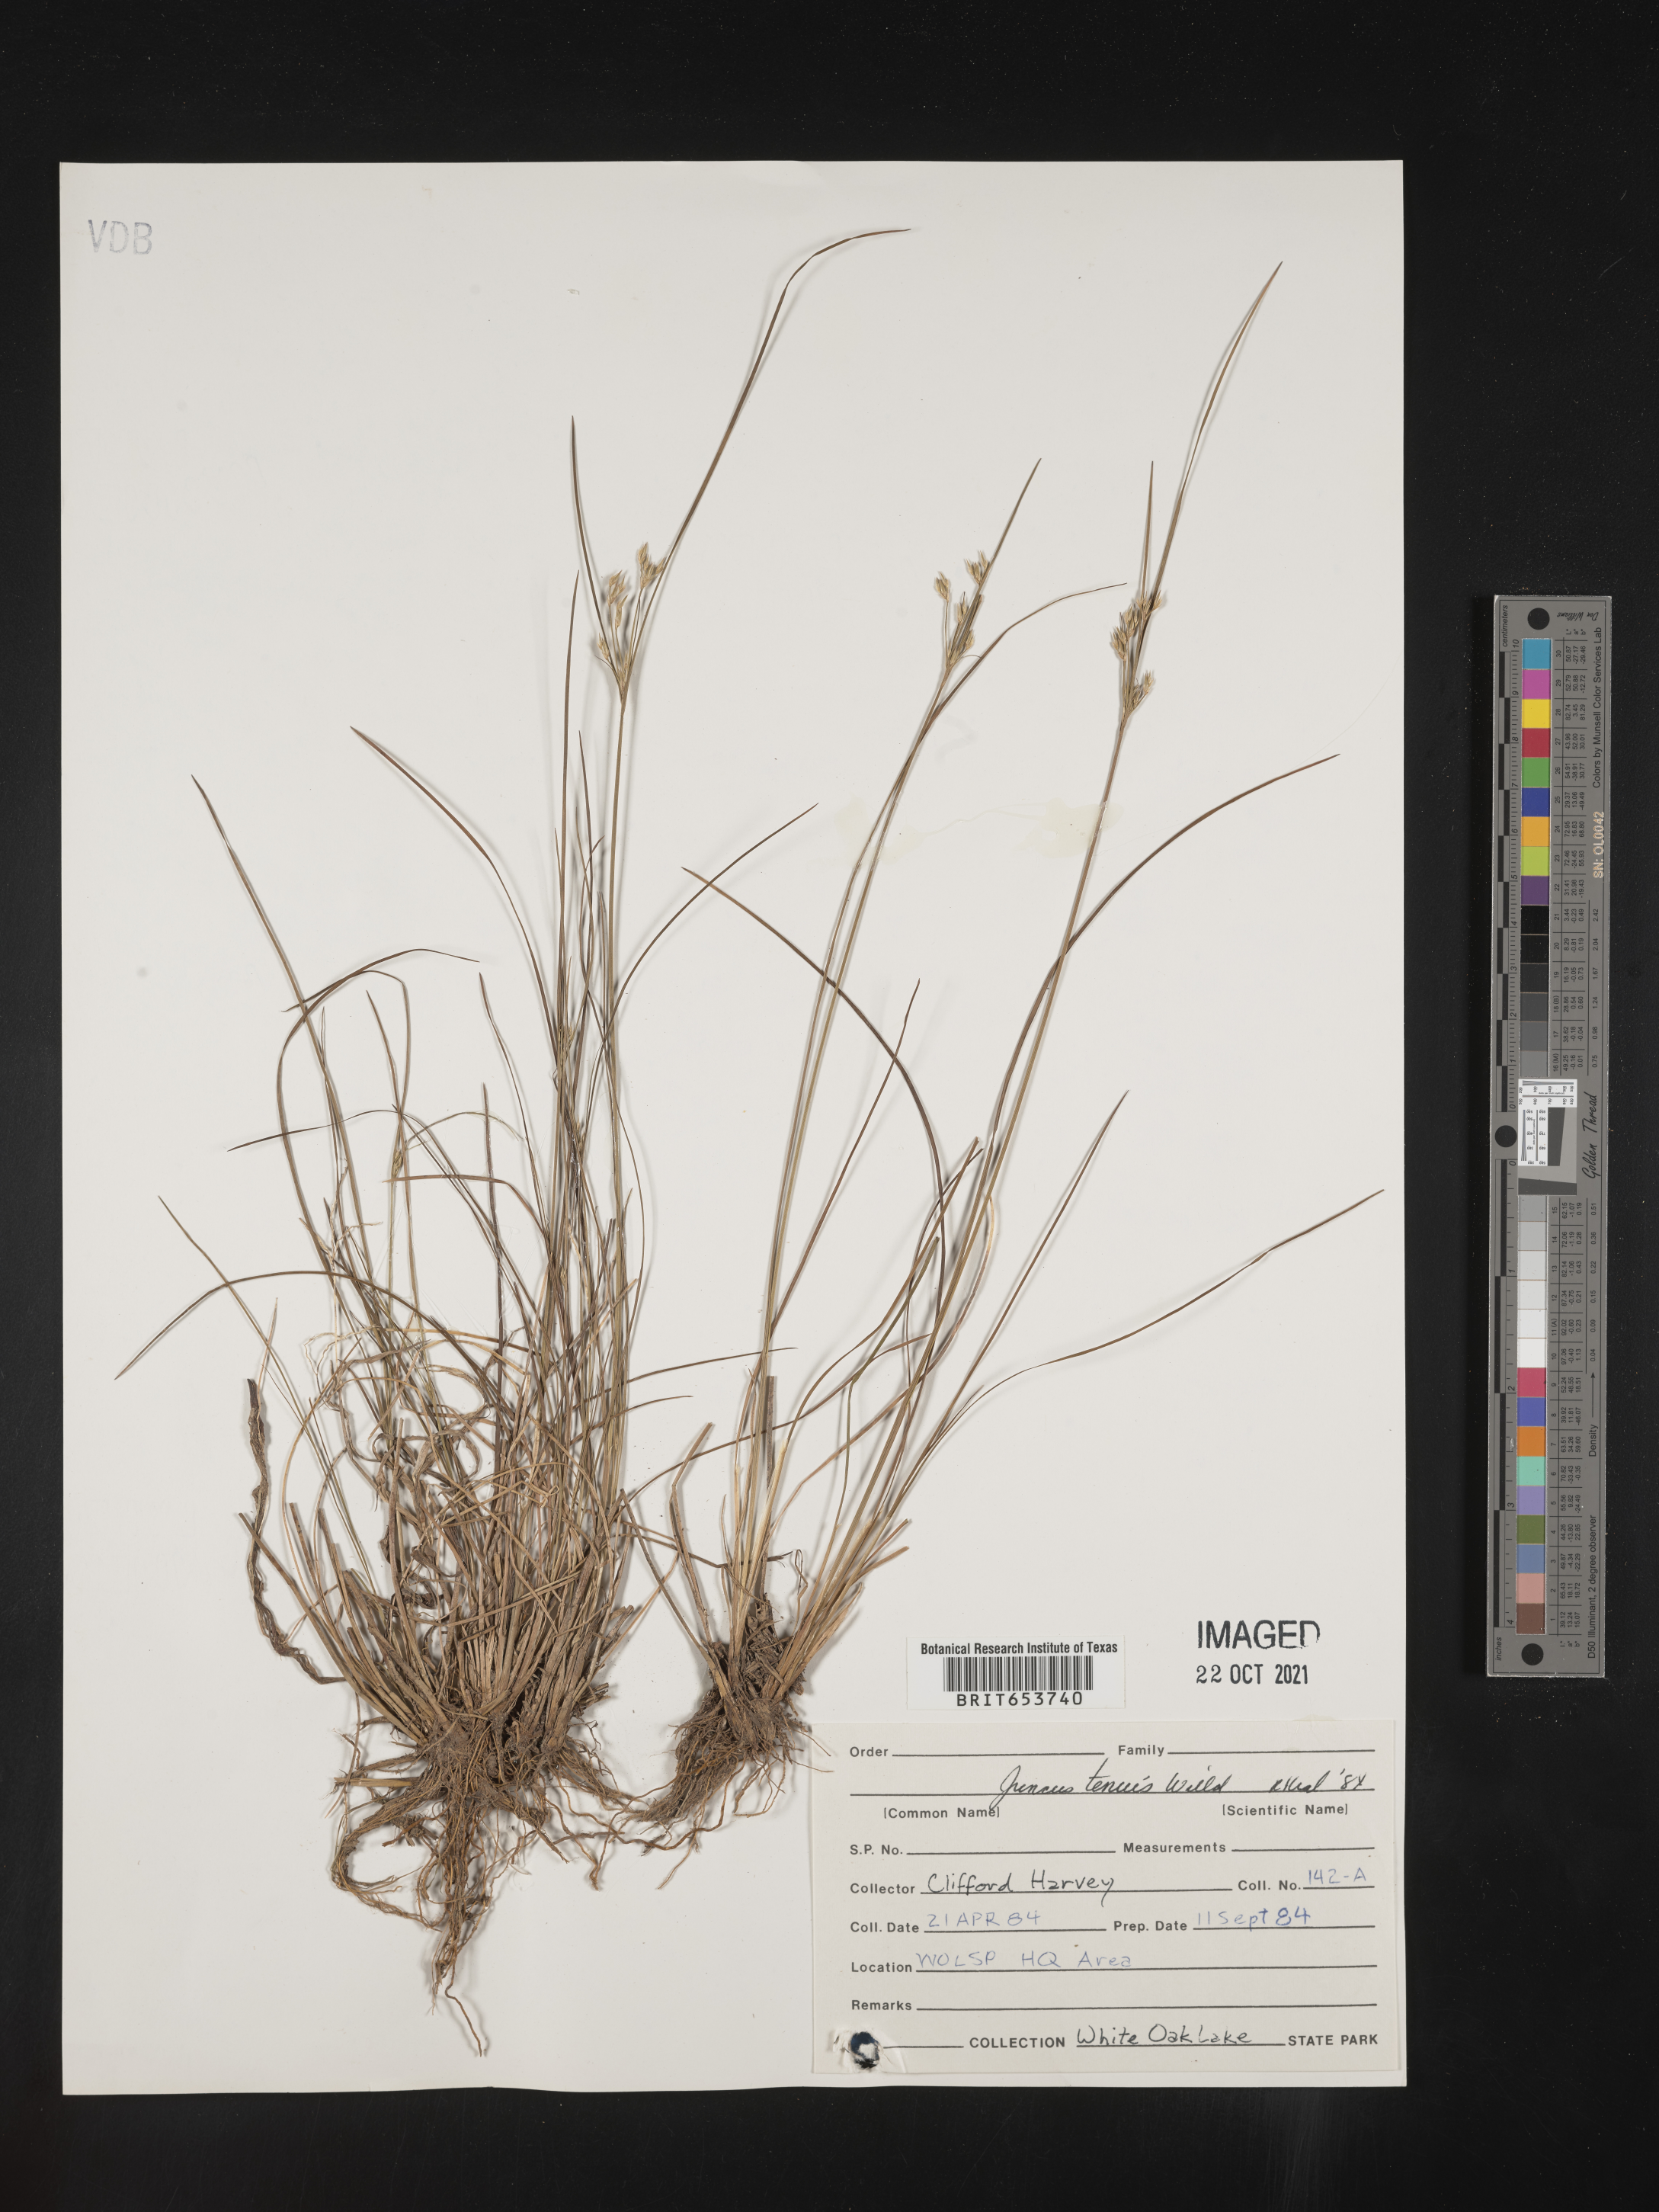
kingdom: Plantae
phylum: Tracheophyta
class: Liliopsida
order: Poales
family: Juncaceae
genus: Juncus
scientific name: Juncus tenuis
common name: Slender rush
